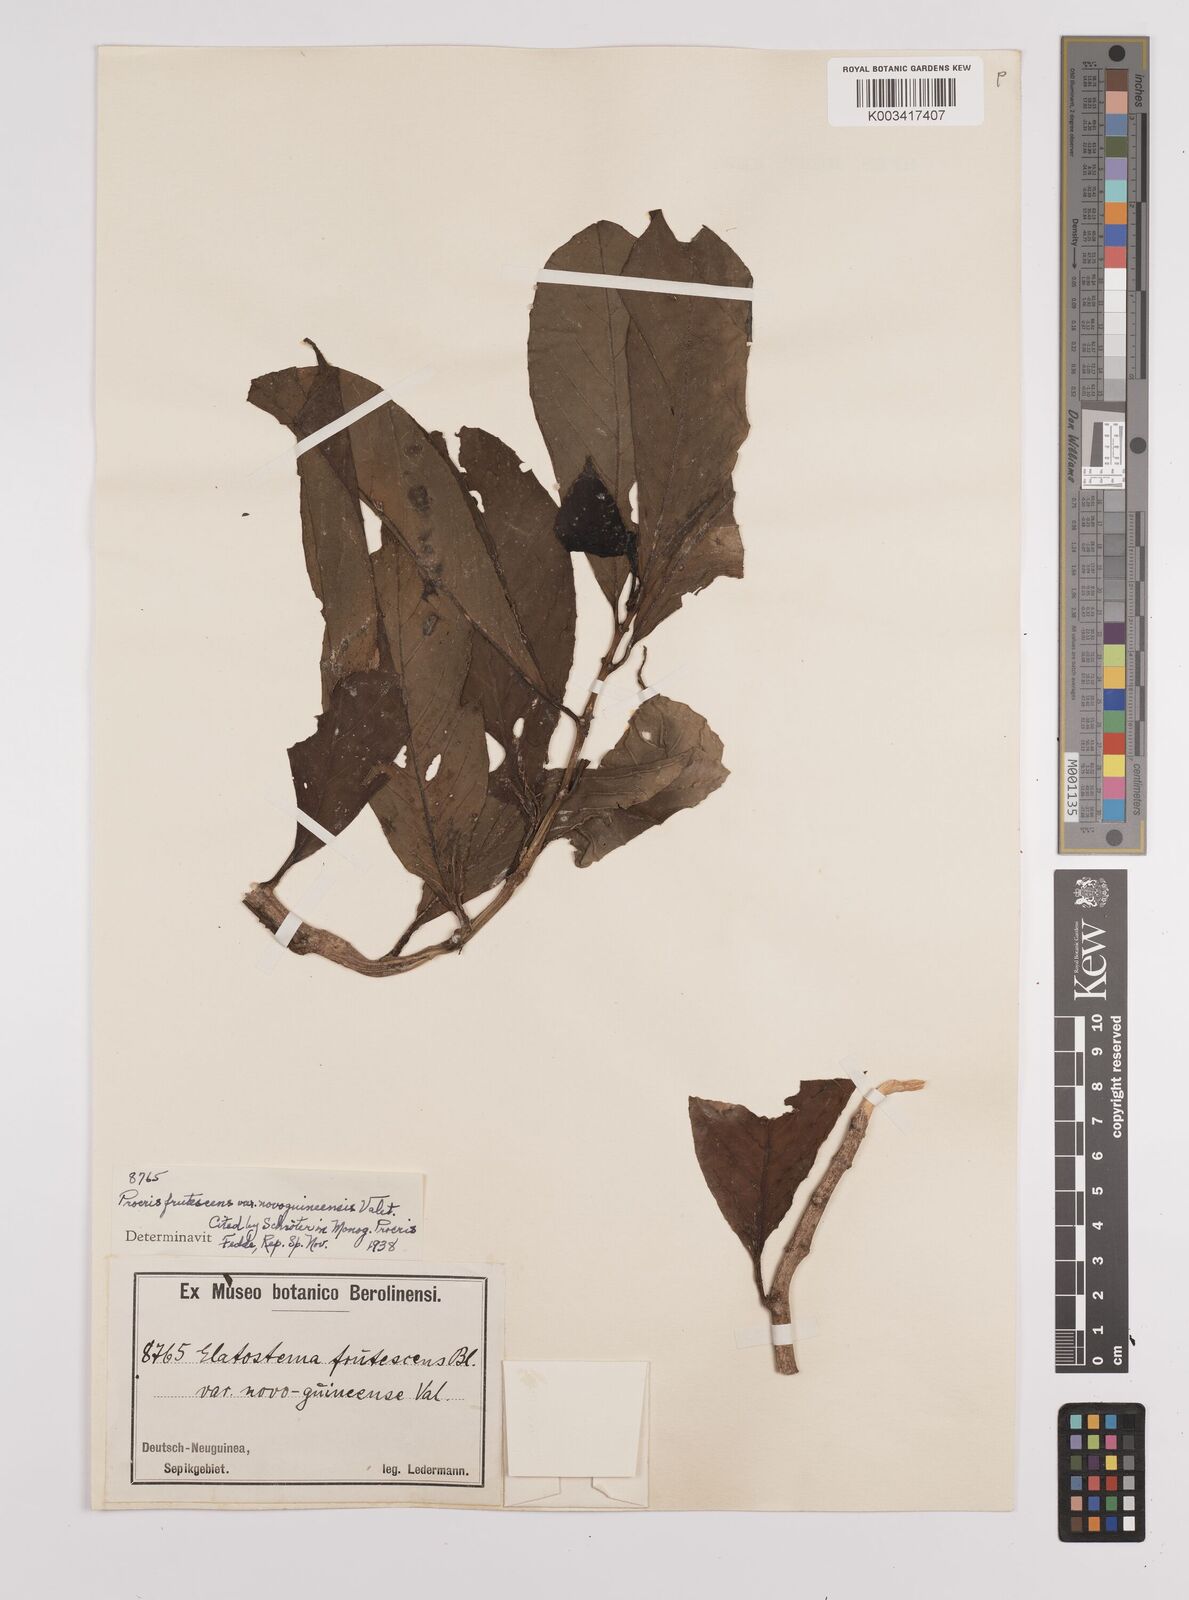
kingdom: Plantae
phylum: Tracheophyta
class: Magnoliopsida
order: Rosales
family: Urticaceae
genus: Procris
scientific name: Procris frutescens
